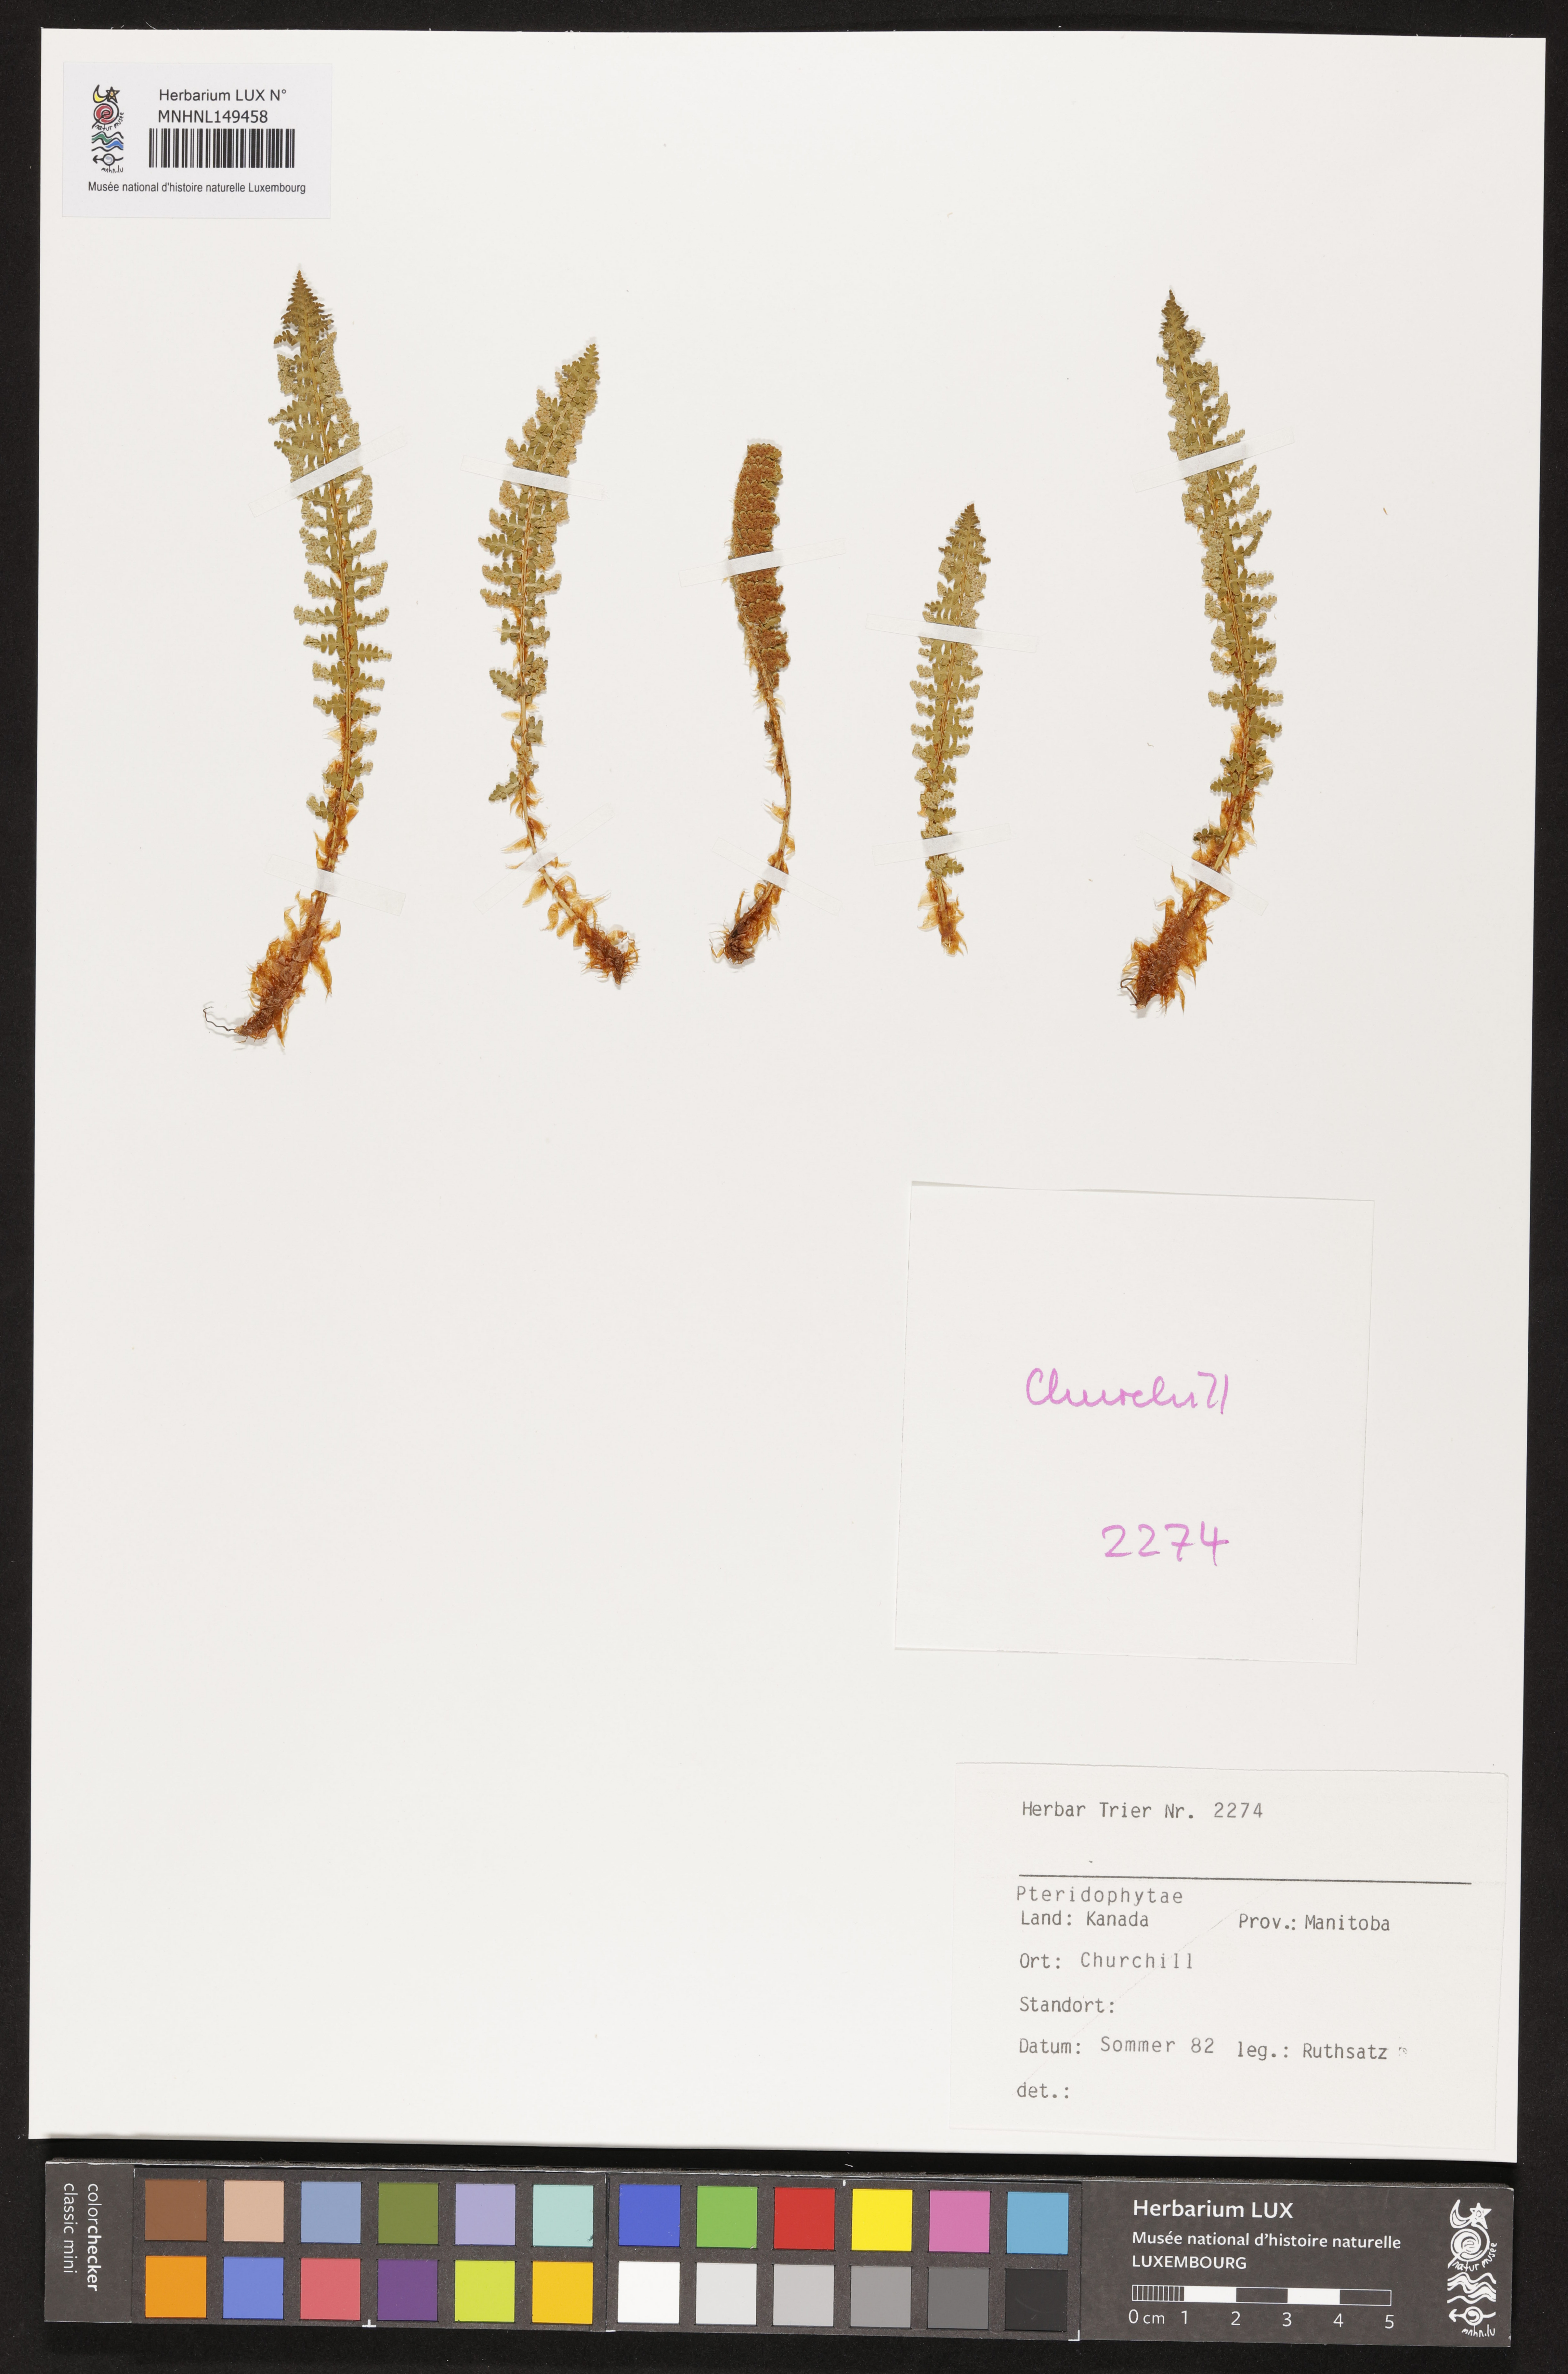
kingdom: Plantae
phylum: Tracheophyta
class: Polypodiopsida
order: Polypodiales
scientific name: Polypodiales
